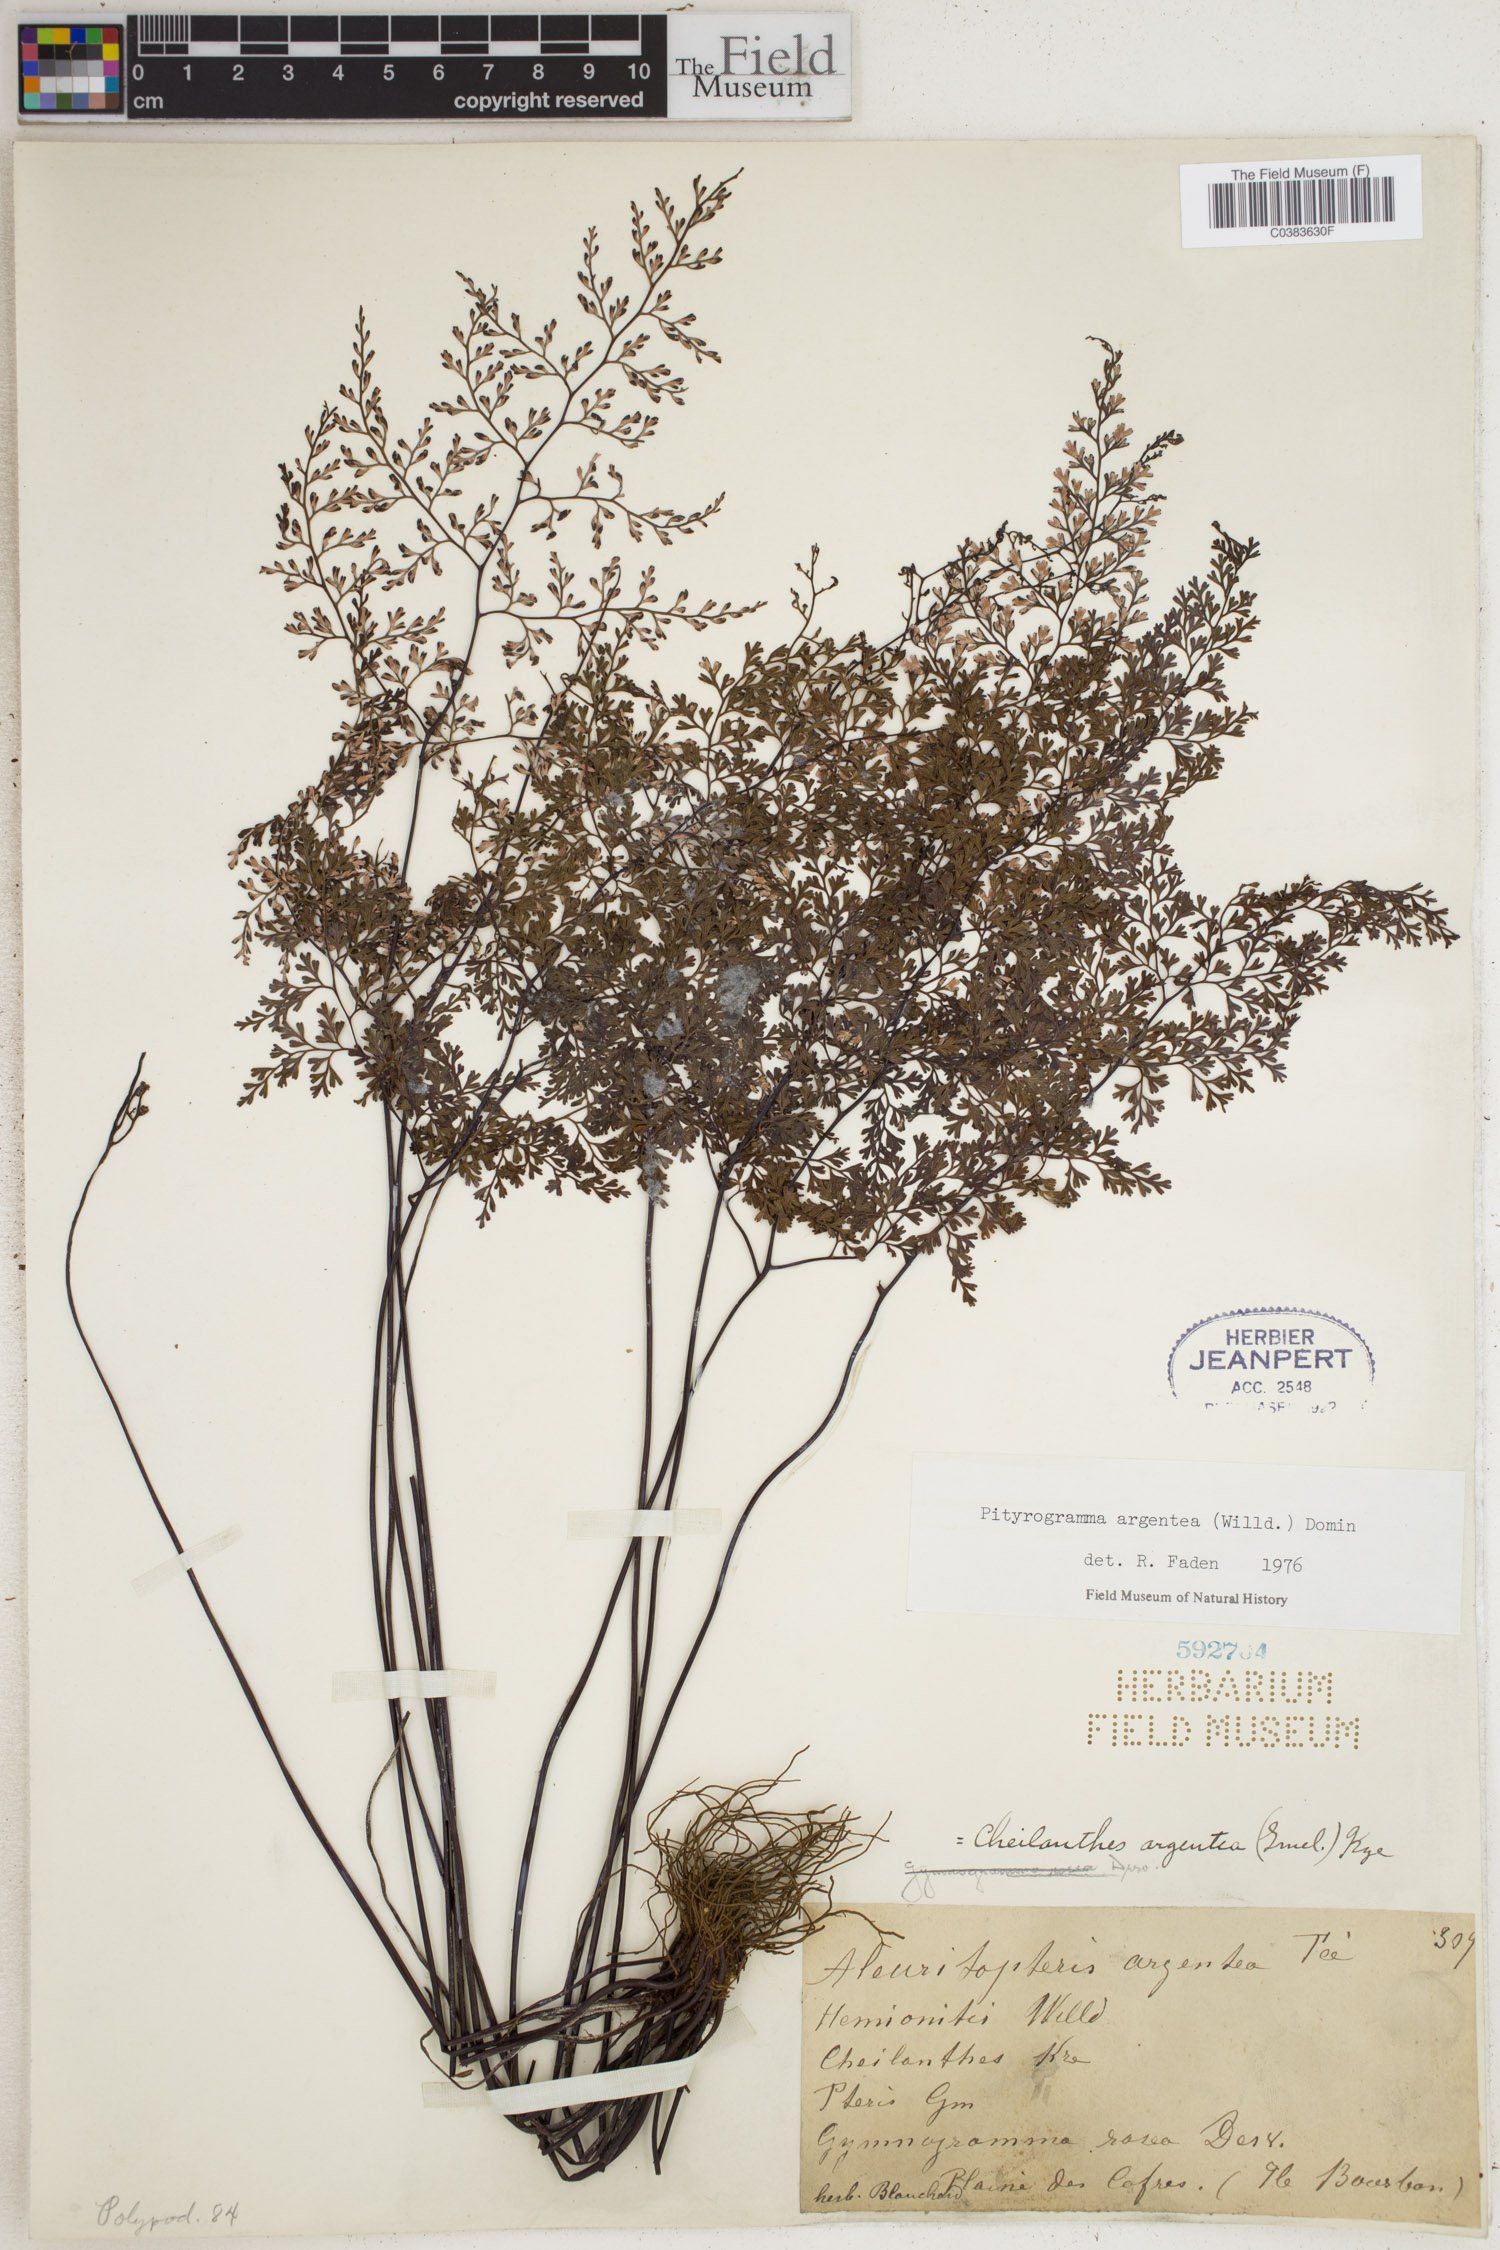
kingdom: Plantae
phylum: Tracheophyta
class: Polypodiopsida
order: Polypodiales
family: Pteridaceae
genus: Cerosora
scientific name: Cerosora argentea
